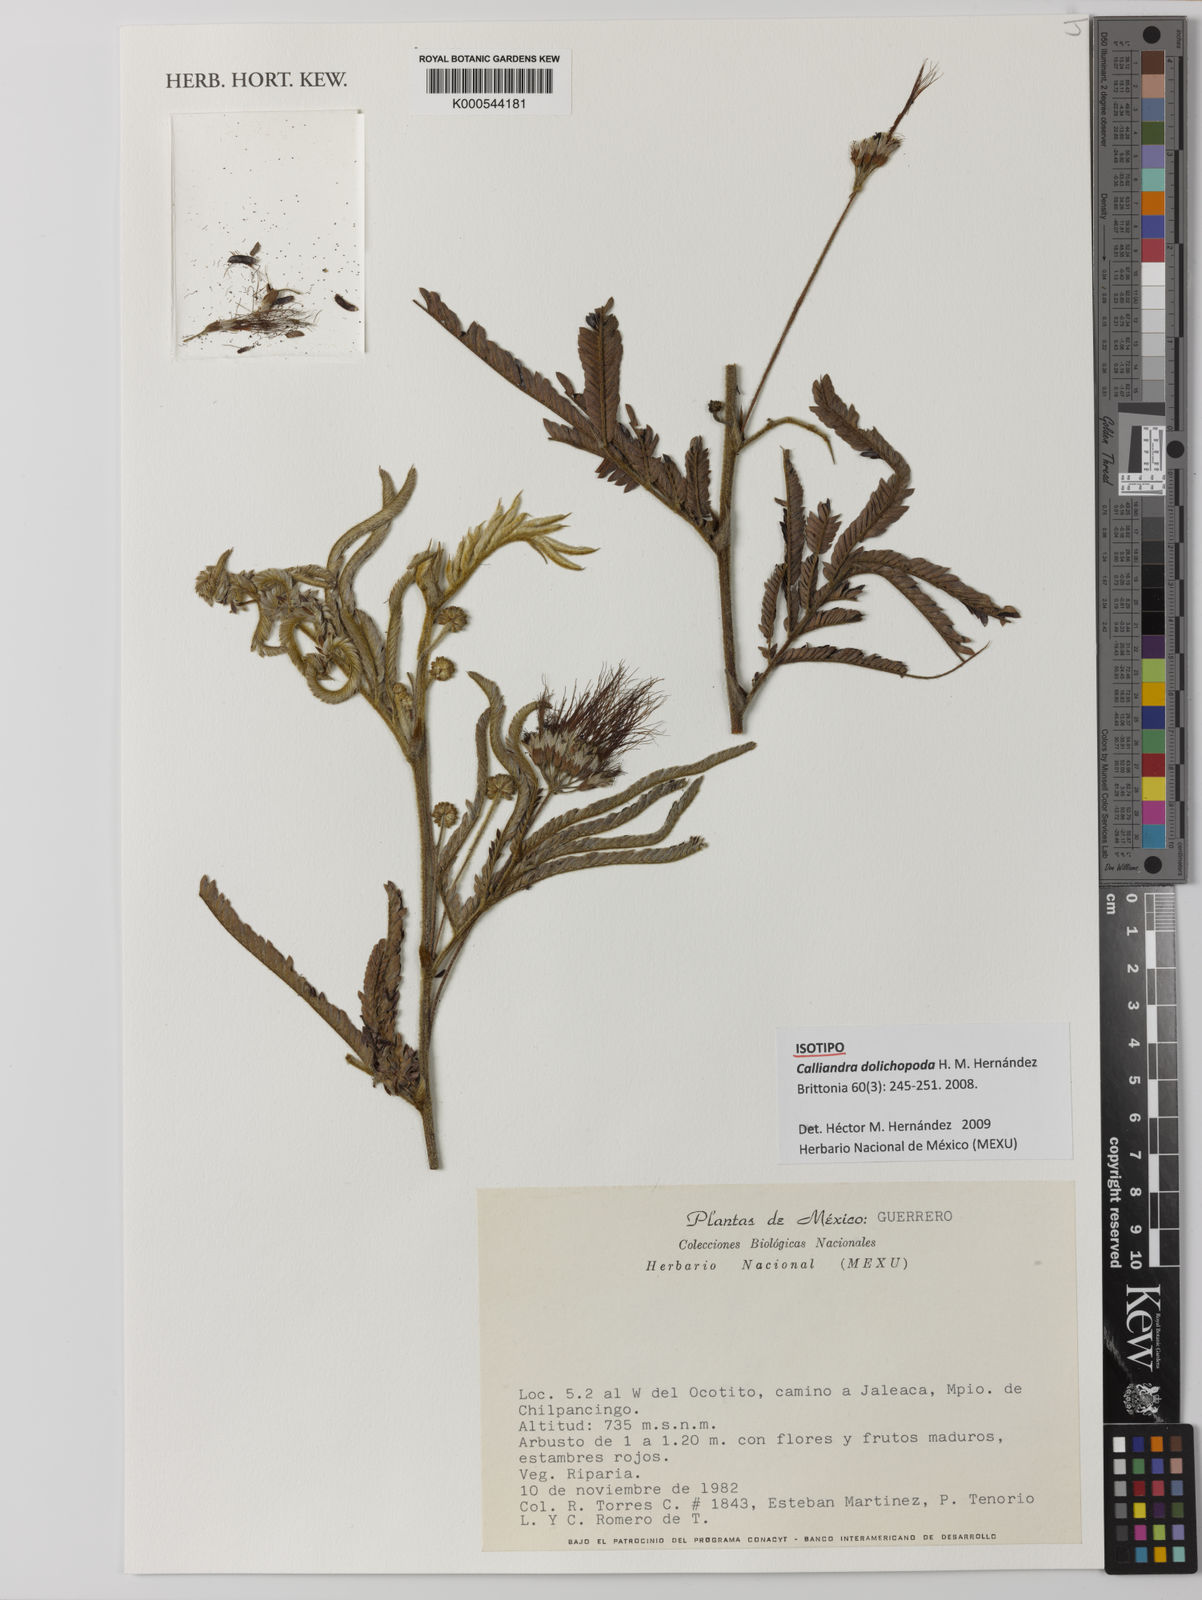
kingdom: Plantae
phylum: Tracheophyta
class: Magnoliopsida
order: Fabales
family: Fabaceae
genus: Calliandra
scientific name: Calliandra dolichopoda
